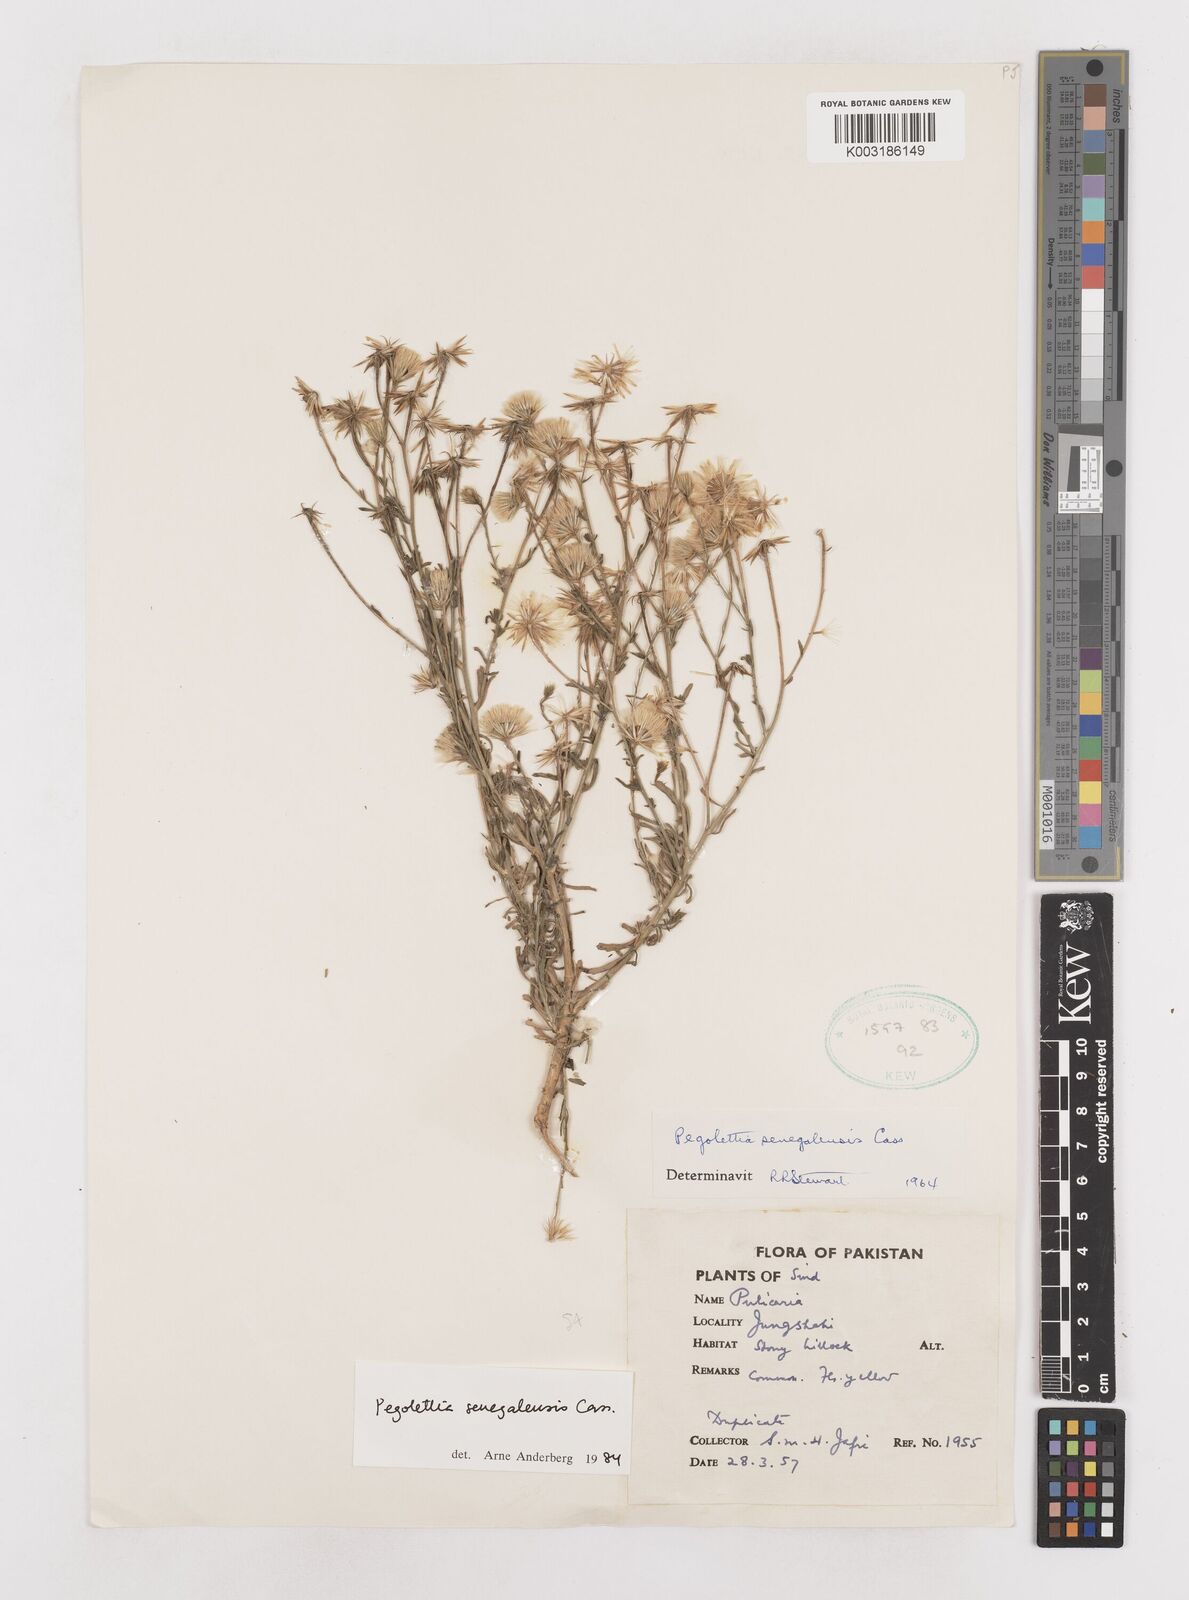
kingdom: Plantae
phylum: Tracheophyta
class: Magnoliopsida
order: Asterales
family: Asteraceae
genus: Pegolettia
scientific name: Pegolettia senegalensis
